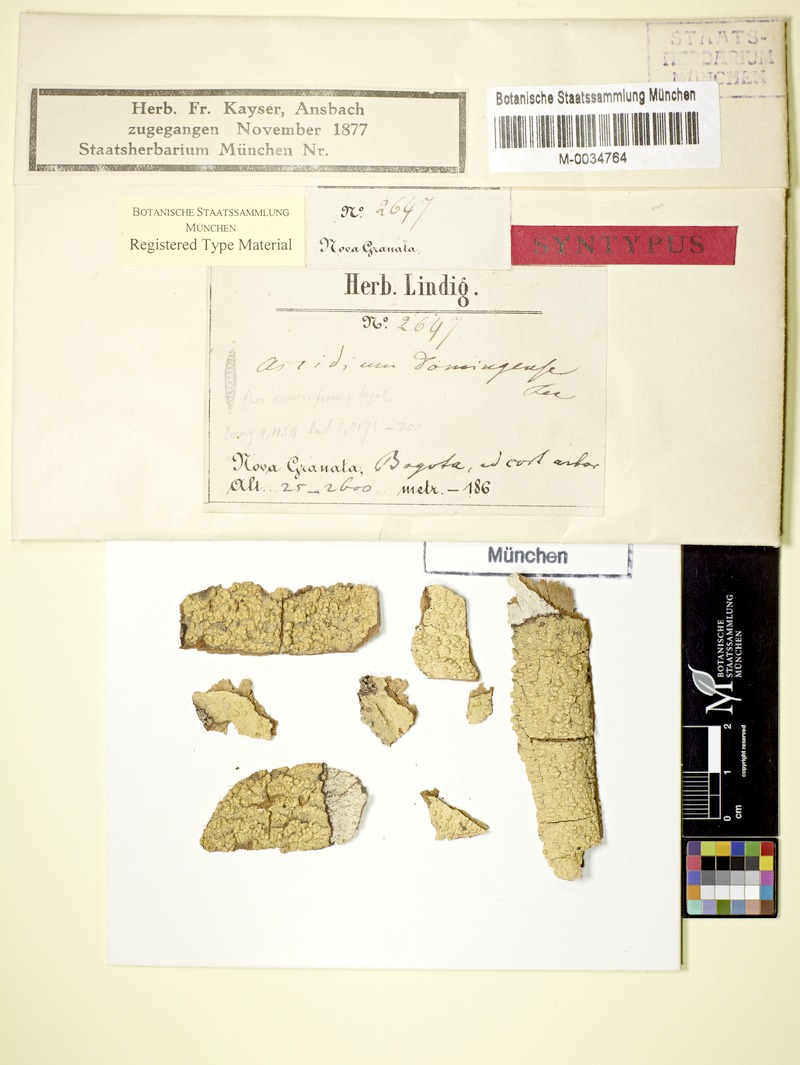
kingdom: Fungi
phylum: Ascomycota
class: Lecanoromycetes
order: Ostropales
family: Graphidaceae
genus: Ocellularia
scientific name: Ocellularia domingensis
